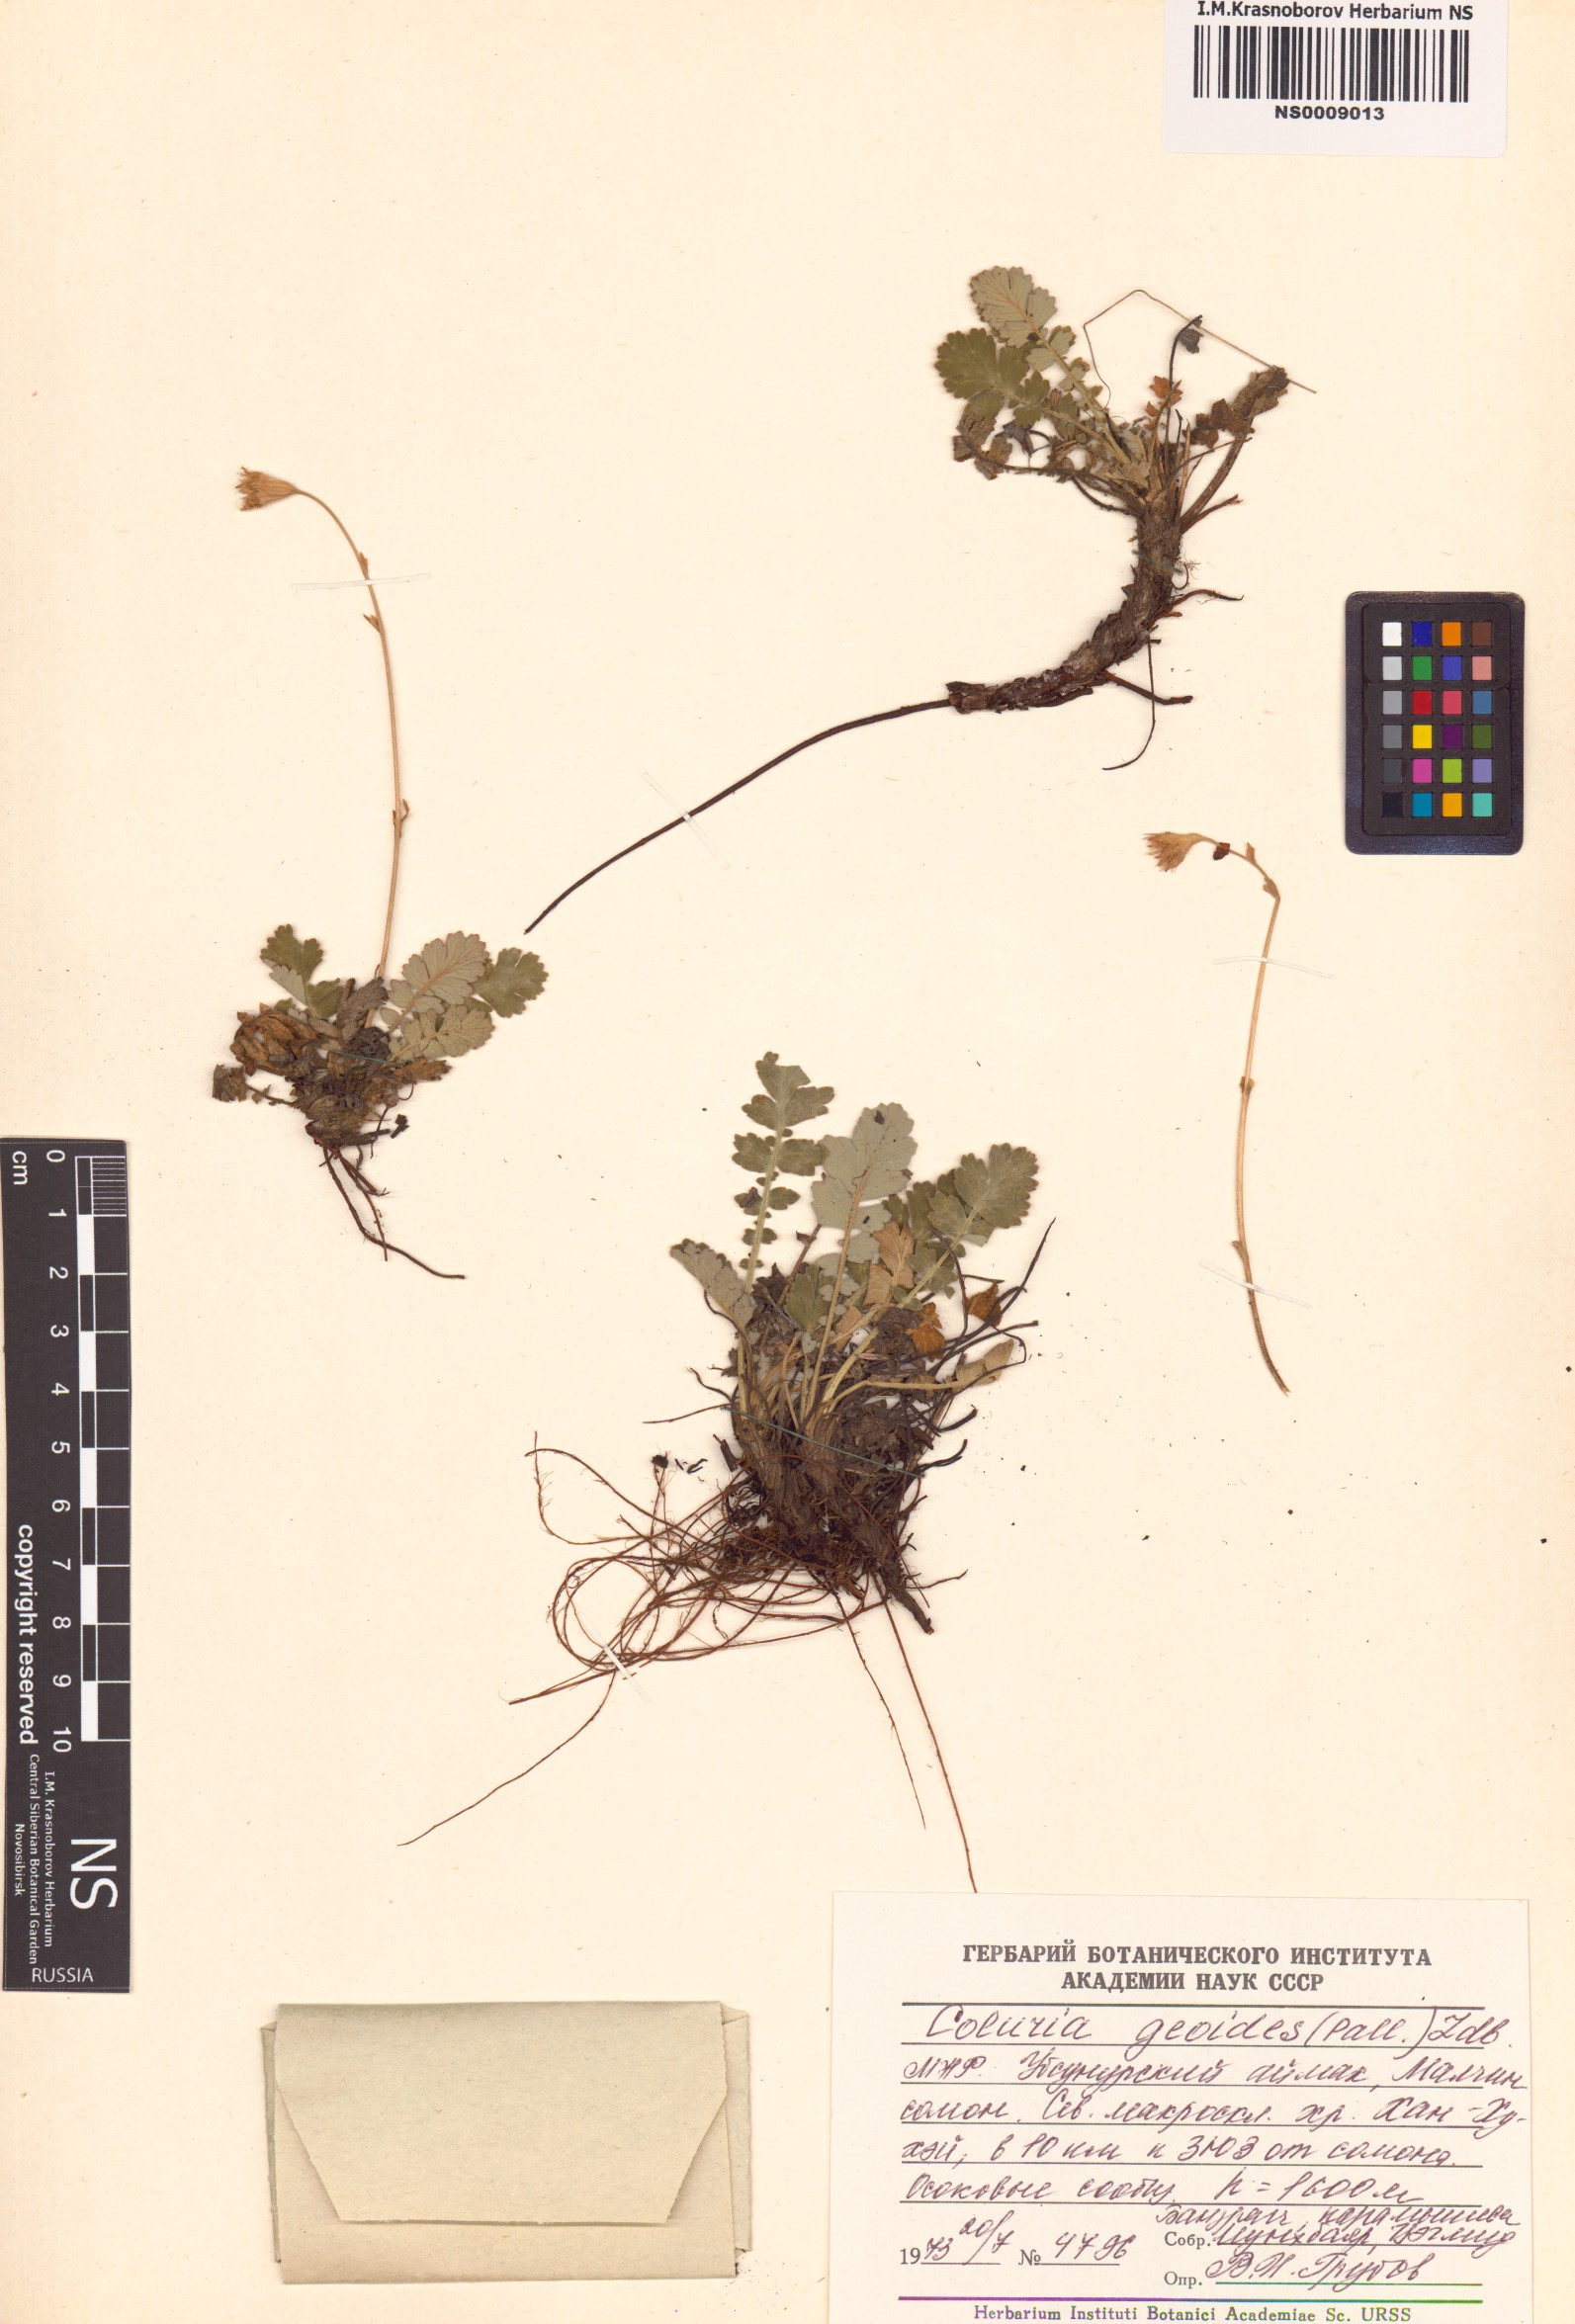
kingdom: Plantae
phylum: Tracheophyta
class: Magnoliopsida
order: Rosales
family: Rosaceae
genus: Geum
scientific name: Geum geoides
